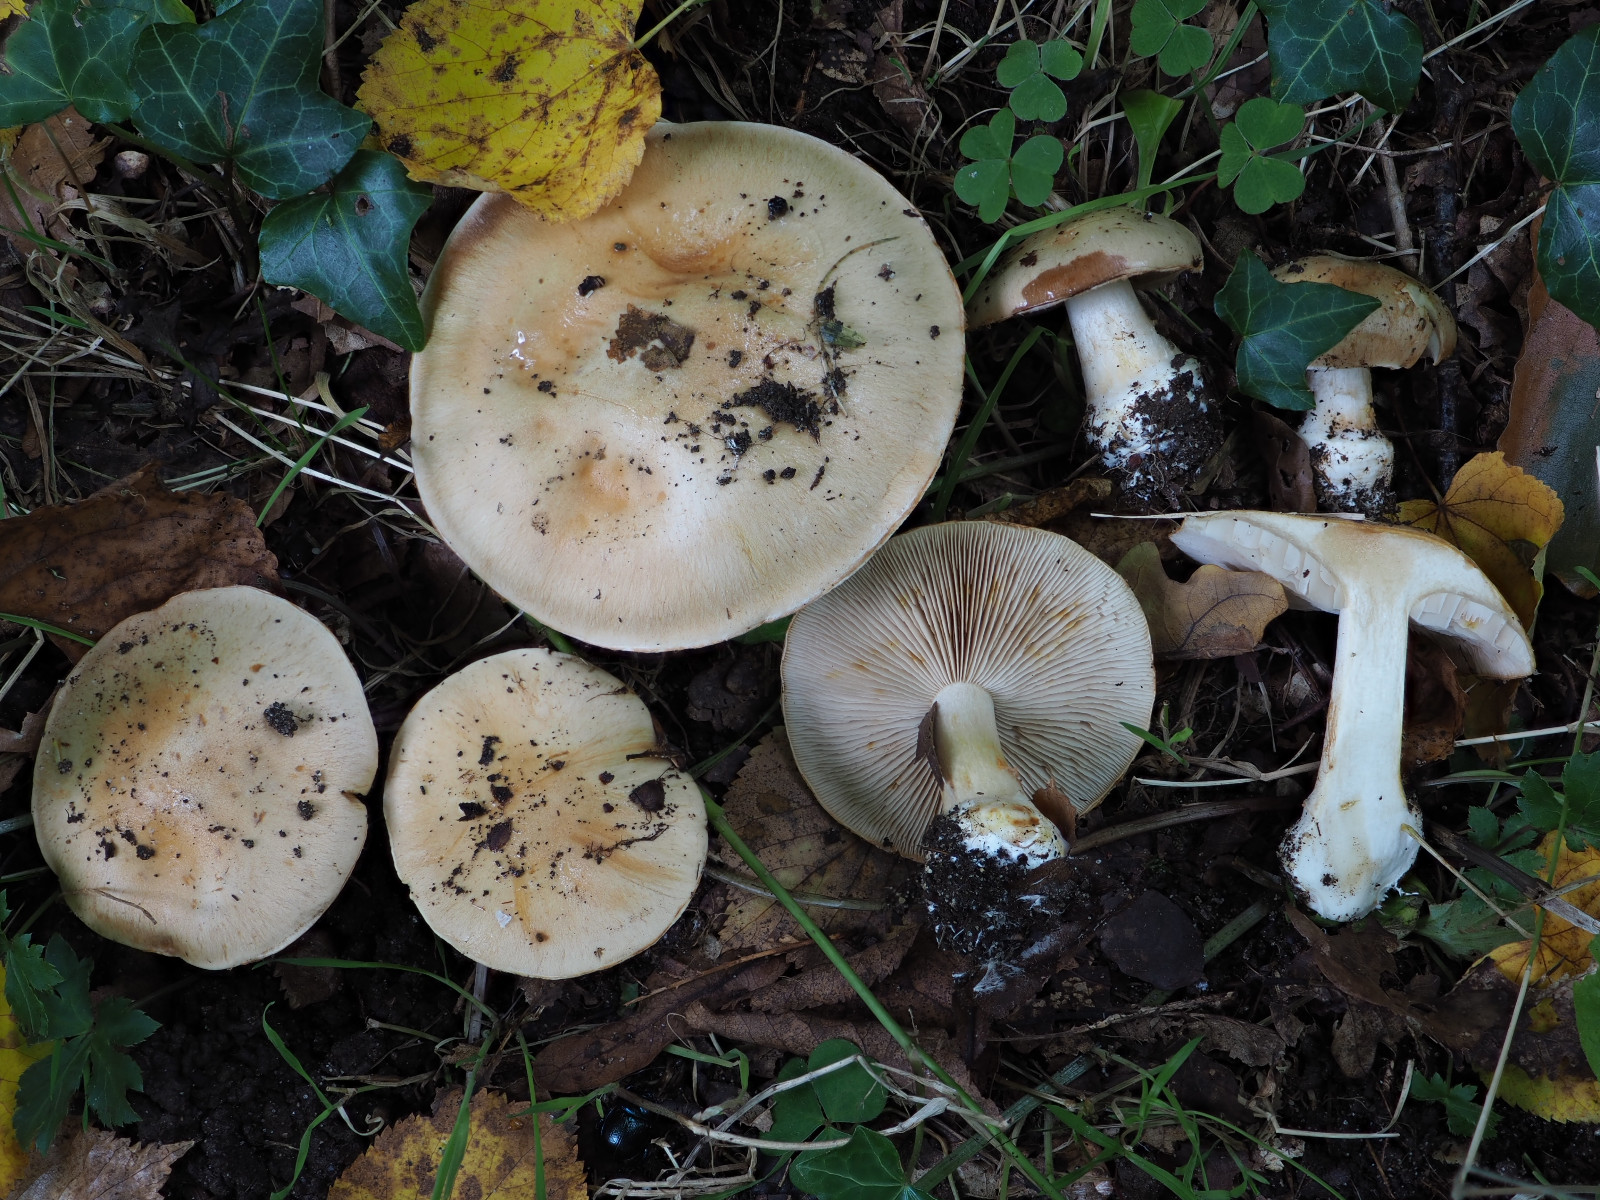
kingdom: Fungi
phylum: Basidiomycota
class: Agaricomycetes
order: Agaricales
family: Cortinariaceae
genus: Thaxterogaster
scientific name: Thaxterogaster talus
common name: knogle-slørhat
